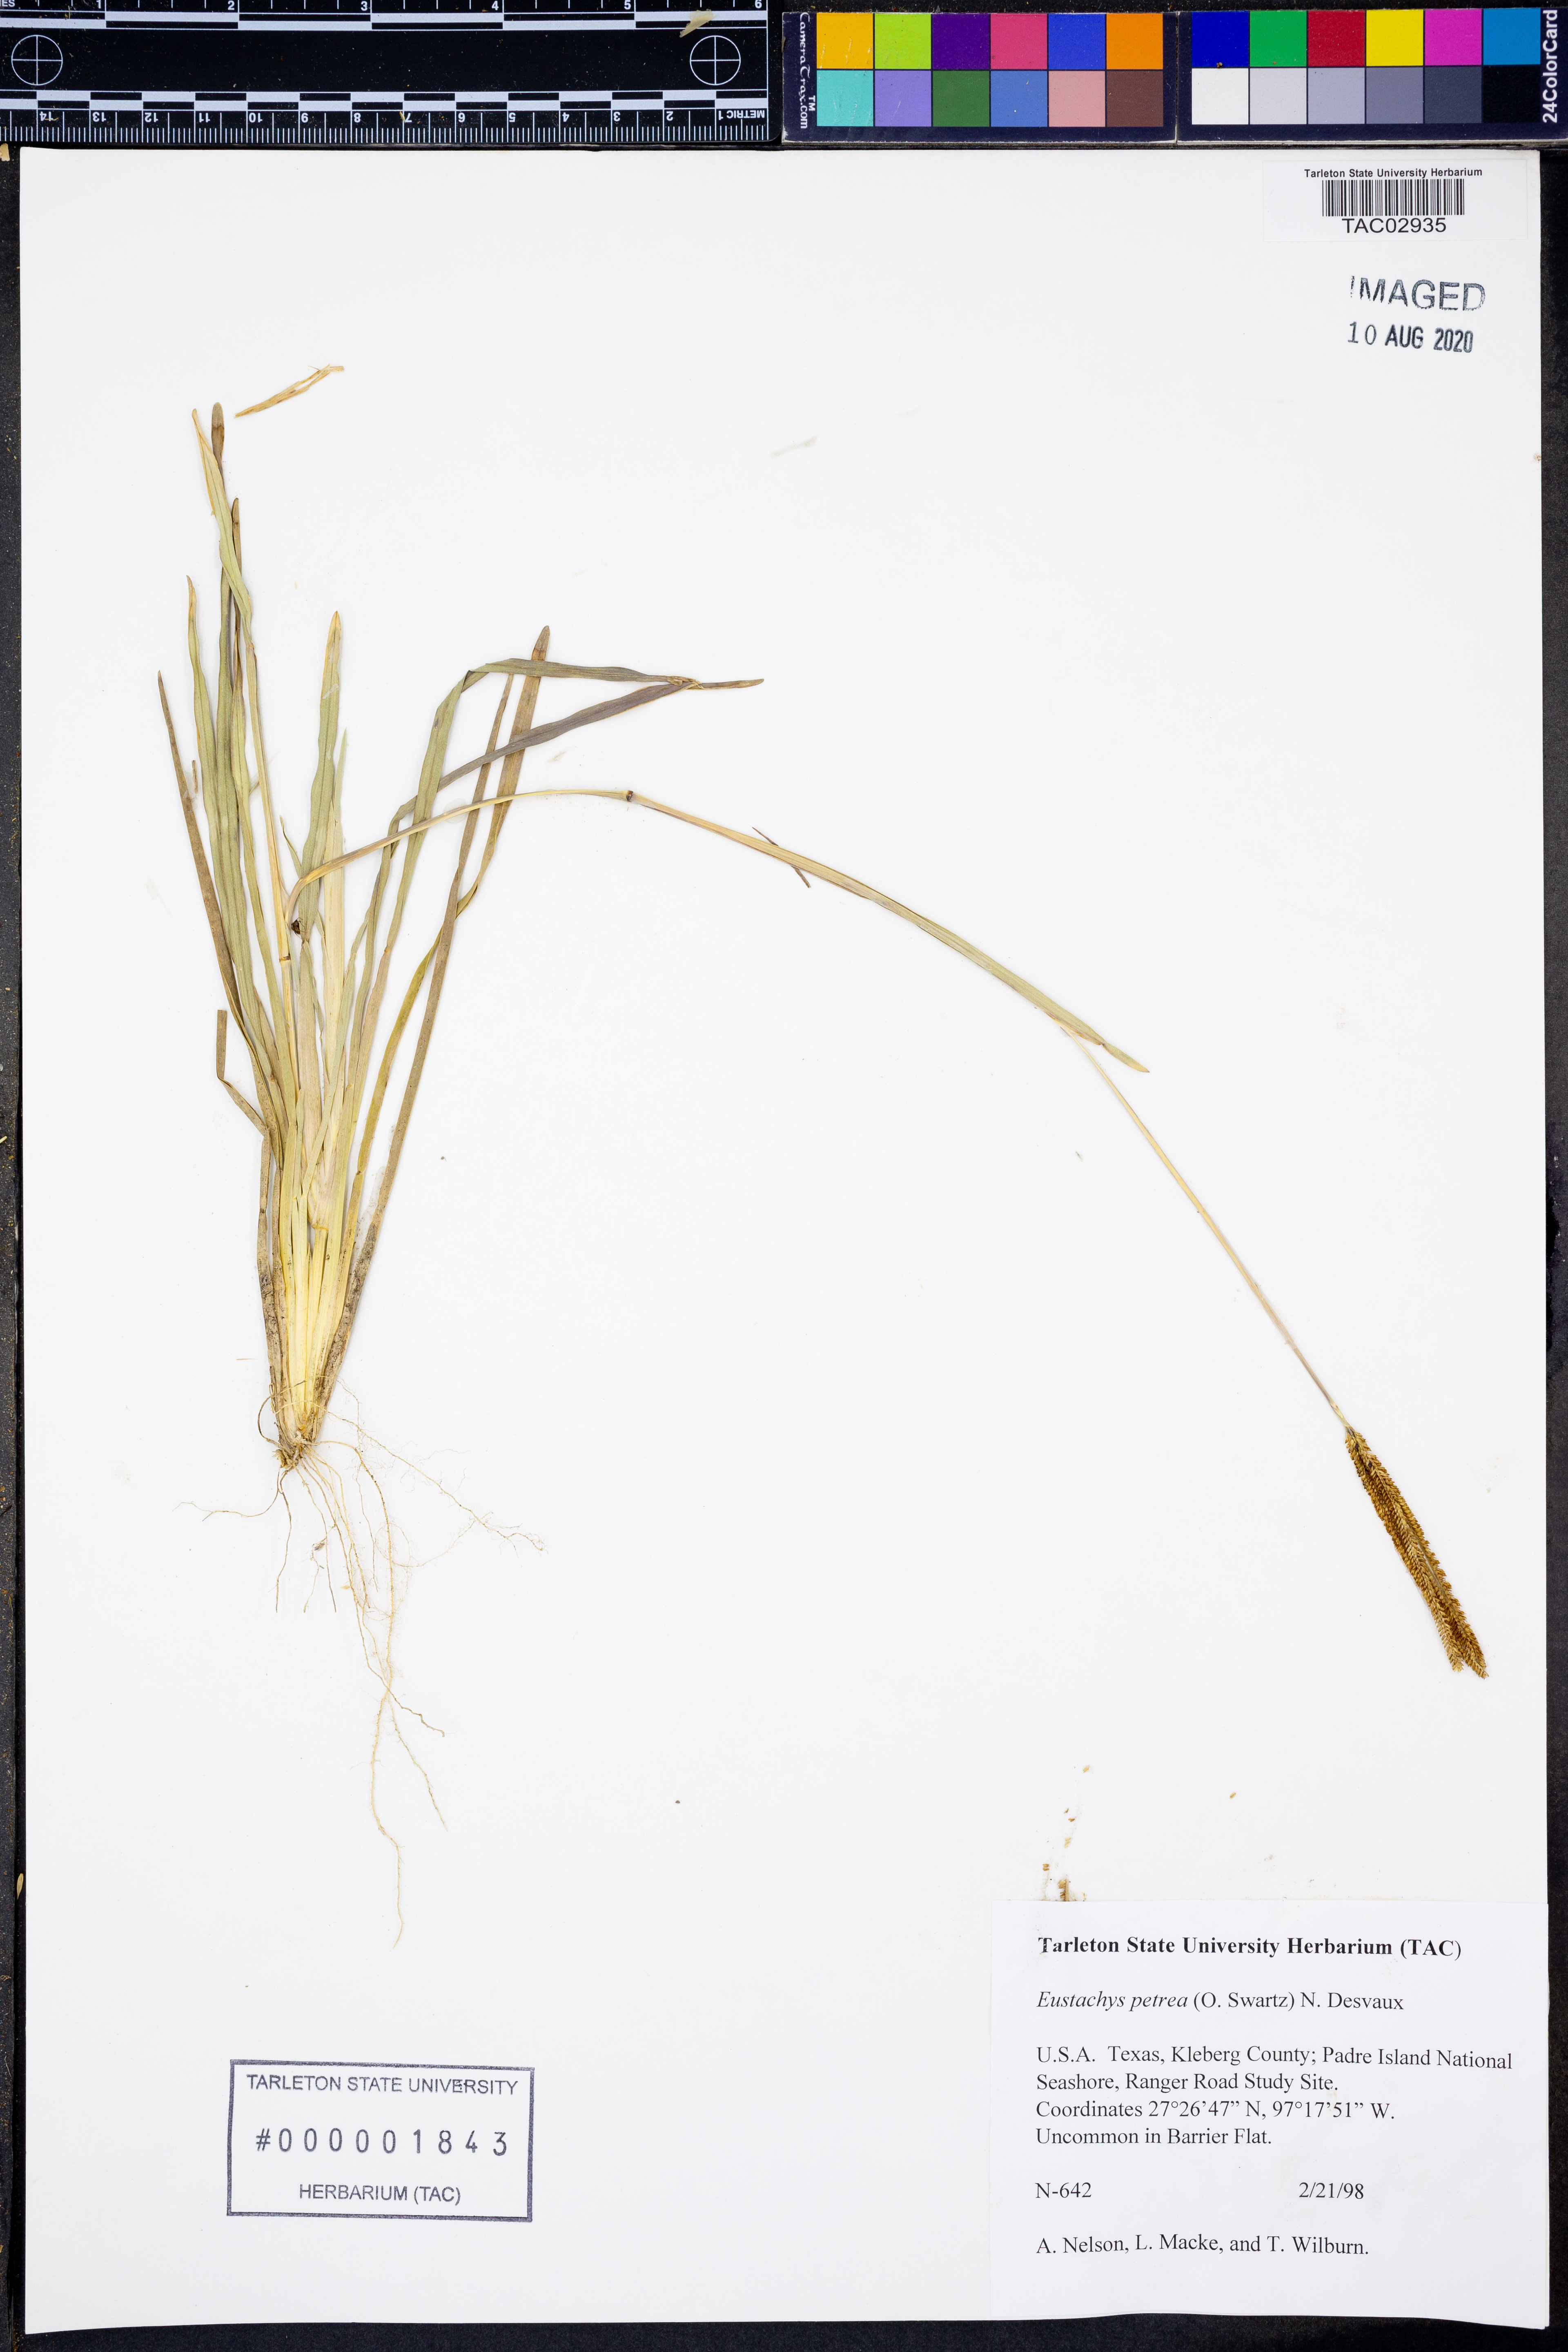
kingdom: Plantae
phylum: Tracheophyta
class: Liliopsida
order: Poales
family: Poaceae
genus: Eustachys
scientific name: Eustachys petraea
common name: Pinewoods fingergrass
